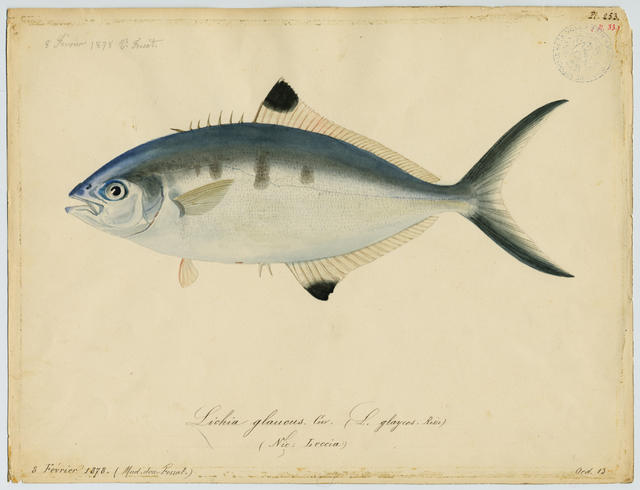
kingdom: Animalia
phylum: Chordata
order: Perciformes
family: Carangidae
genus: Trachinotus
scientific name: Trachinotus ovatus
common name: Pompano
